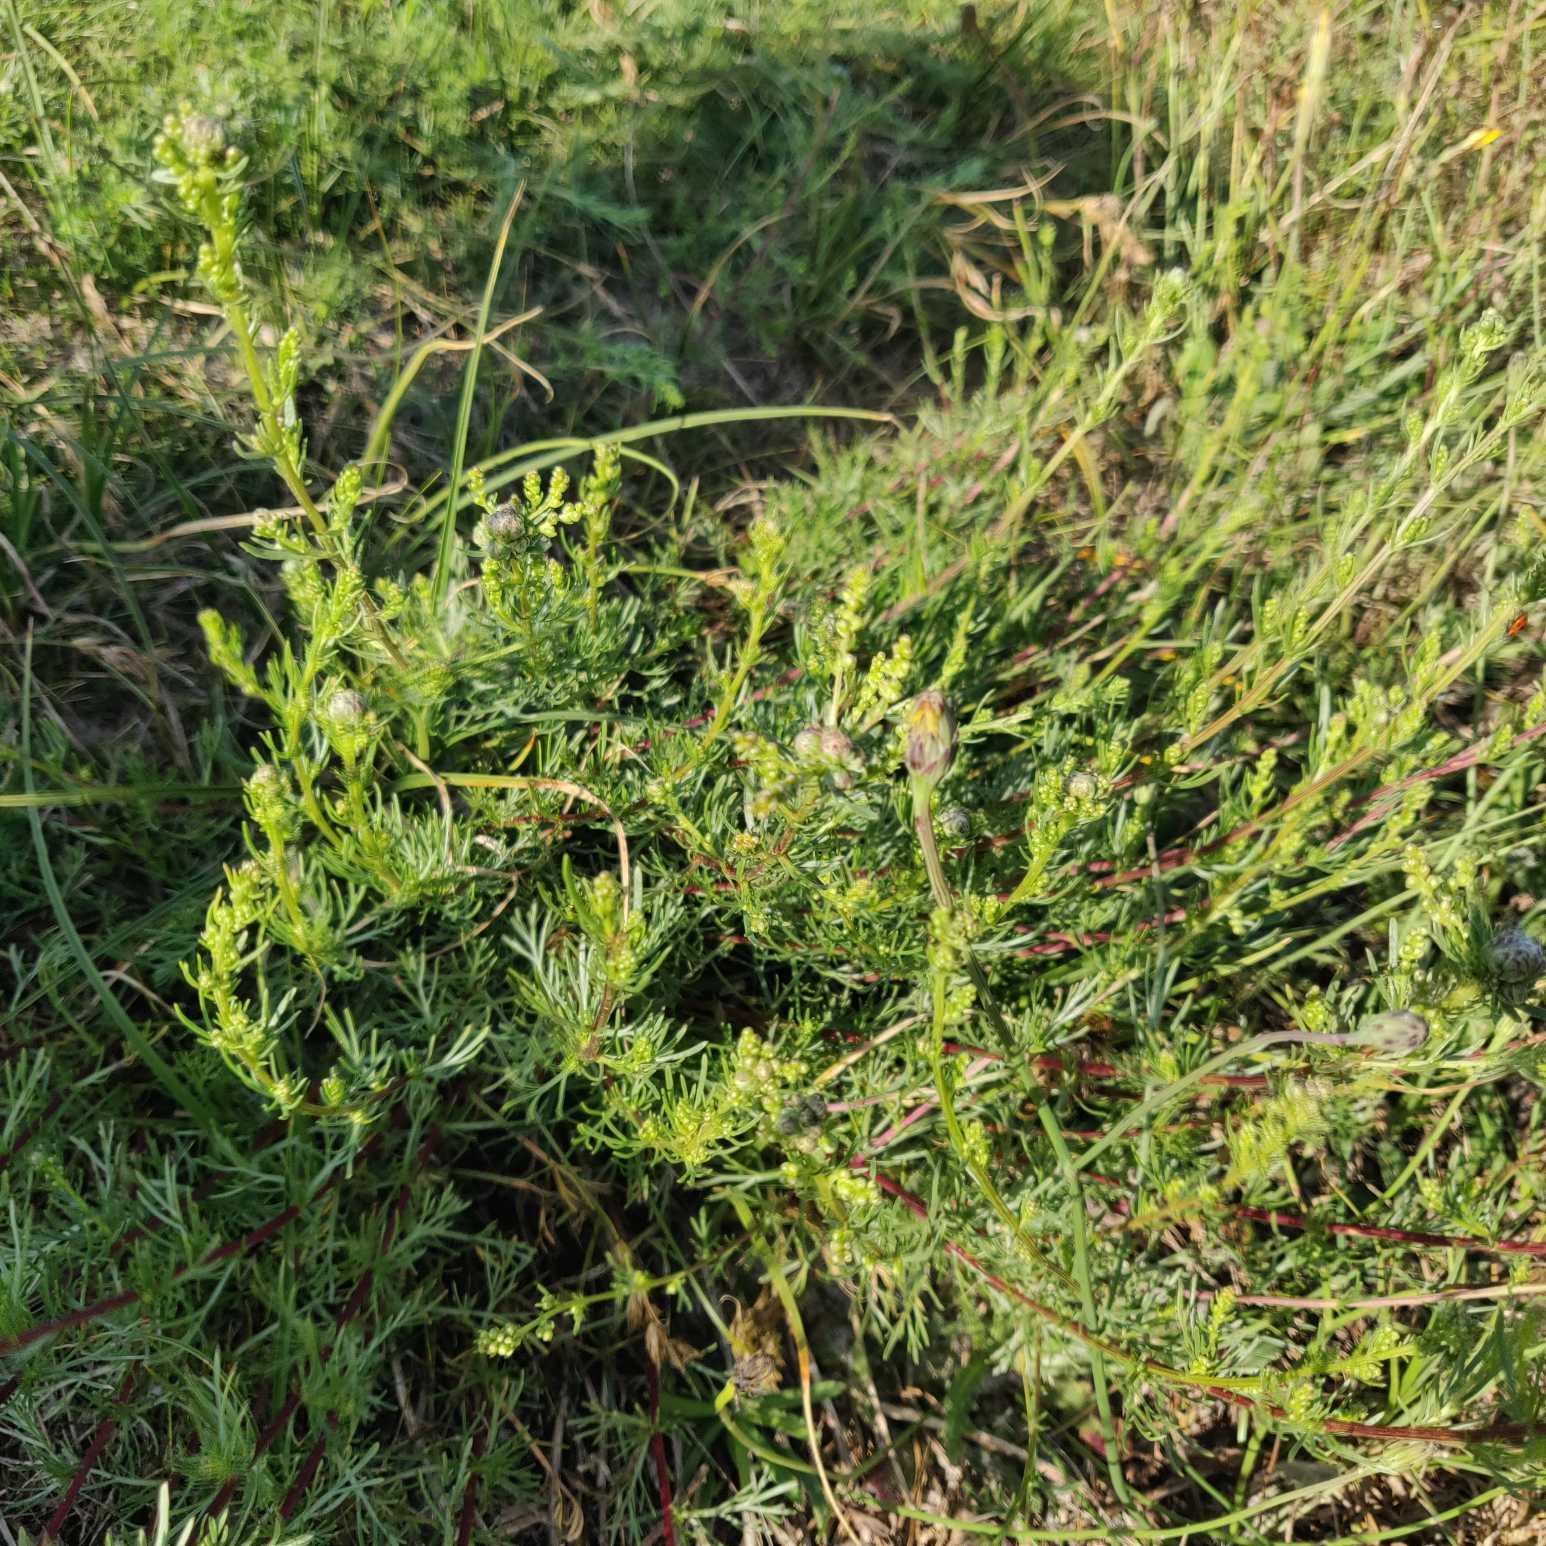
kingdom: Plantae
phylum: Tracheophyta
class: Magnoliopsida
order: Asterales
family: Asteraceae
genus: Artemisia
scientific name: Artemisia campestris
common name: Mark-bynke
